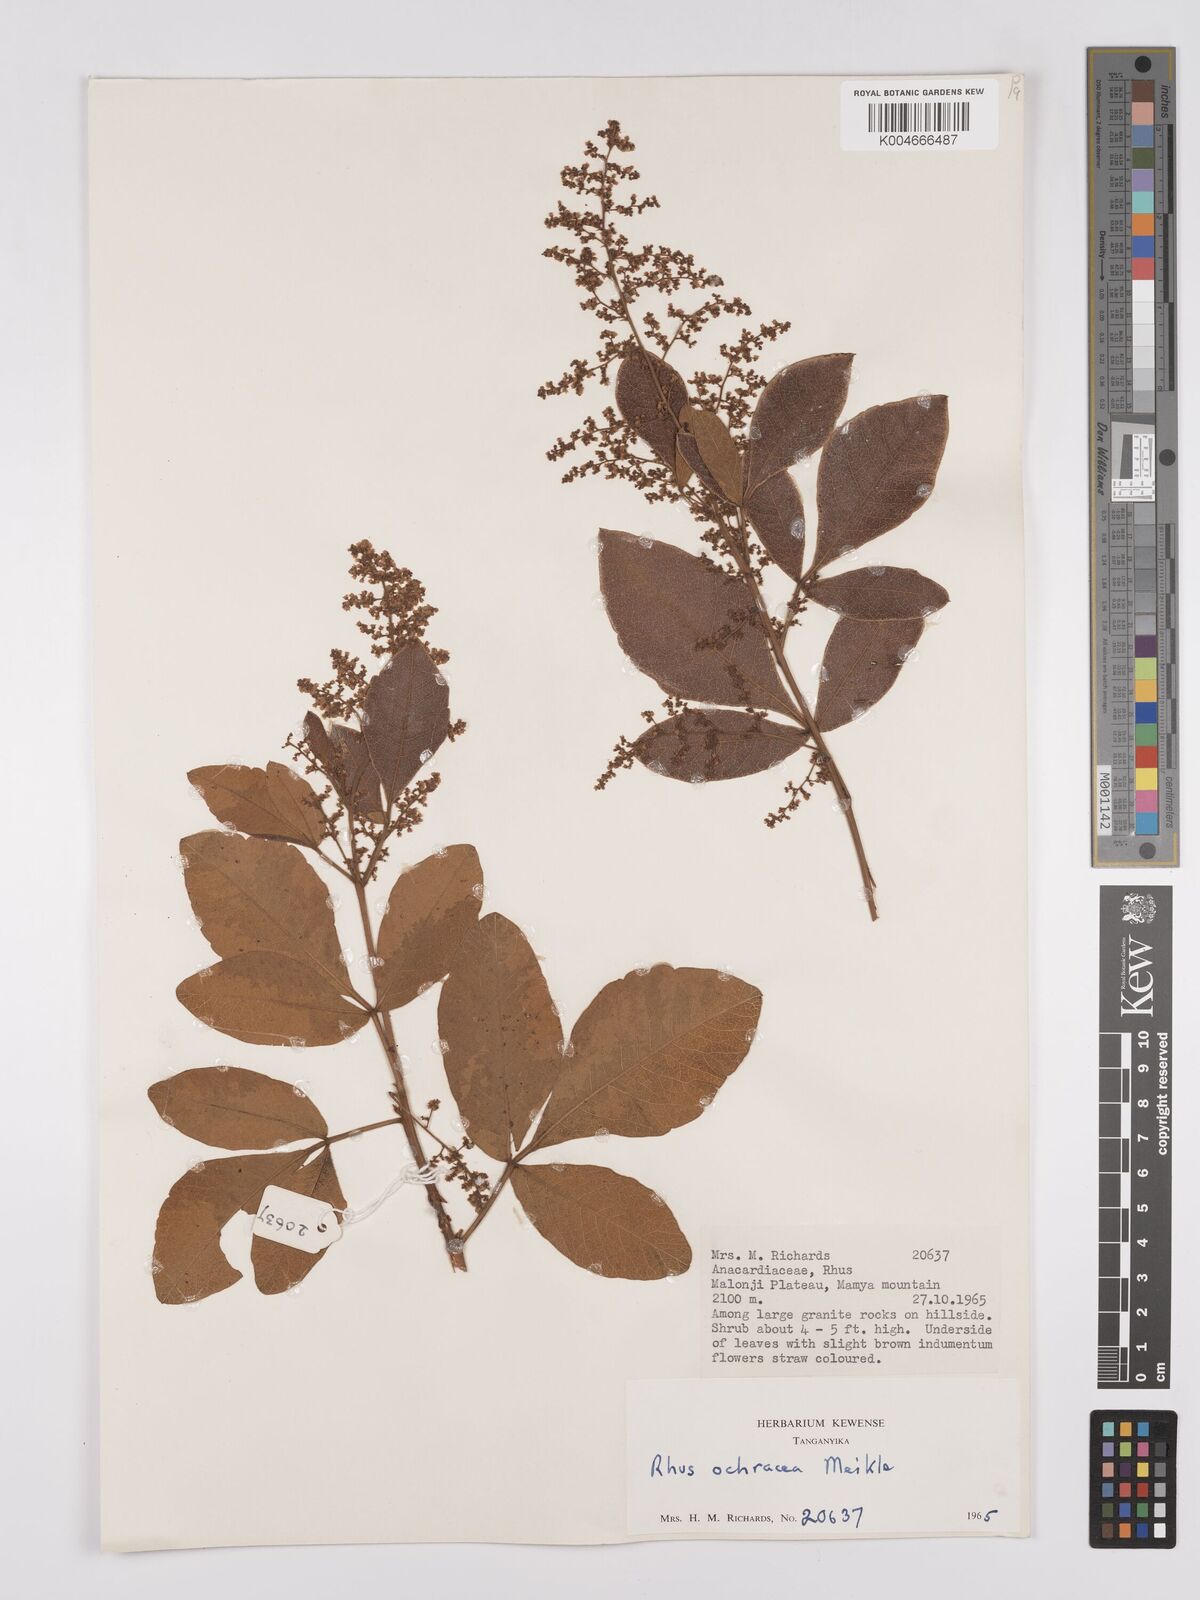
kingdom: Plantae
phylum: Tracheophyta
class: Magnoliopsida
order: Sapindales
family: Anacardiaceae
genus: Searsia
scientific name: Searsia ochracea
